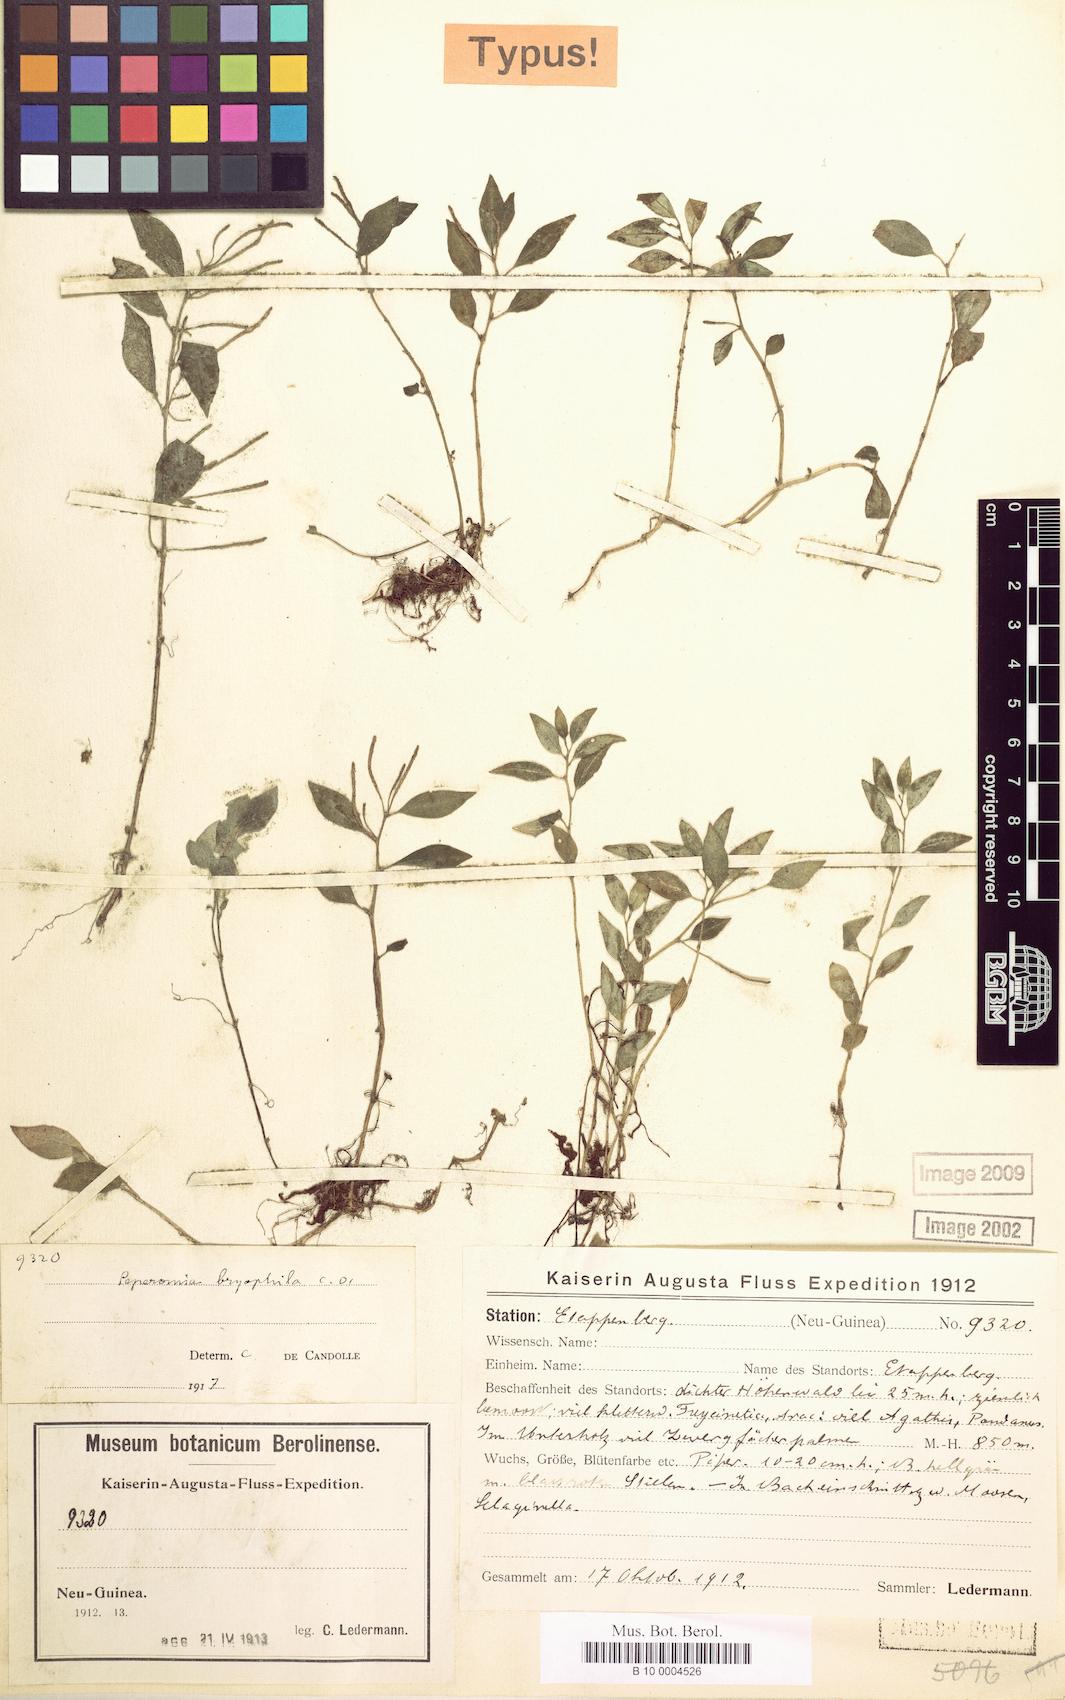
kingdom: Plantae
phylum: Tracheophyta
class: Magnoliopsida
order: Piperales
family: Piperaceae
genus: Peperomia
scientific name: Peperomia bryophila
